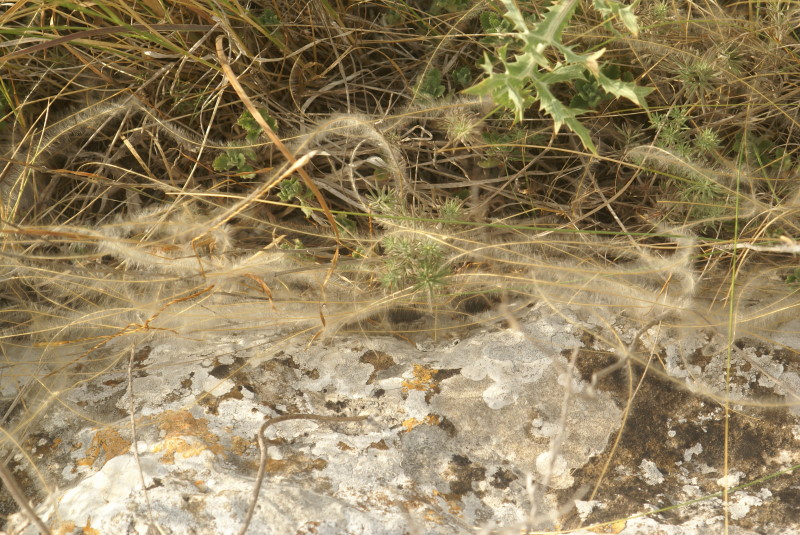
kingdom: Plantae
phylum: Tracheophyta
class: Liliopsida
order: Poales
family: Poaceae
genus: Stipa
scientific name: Stipa
